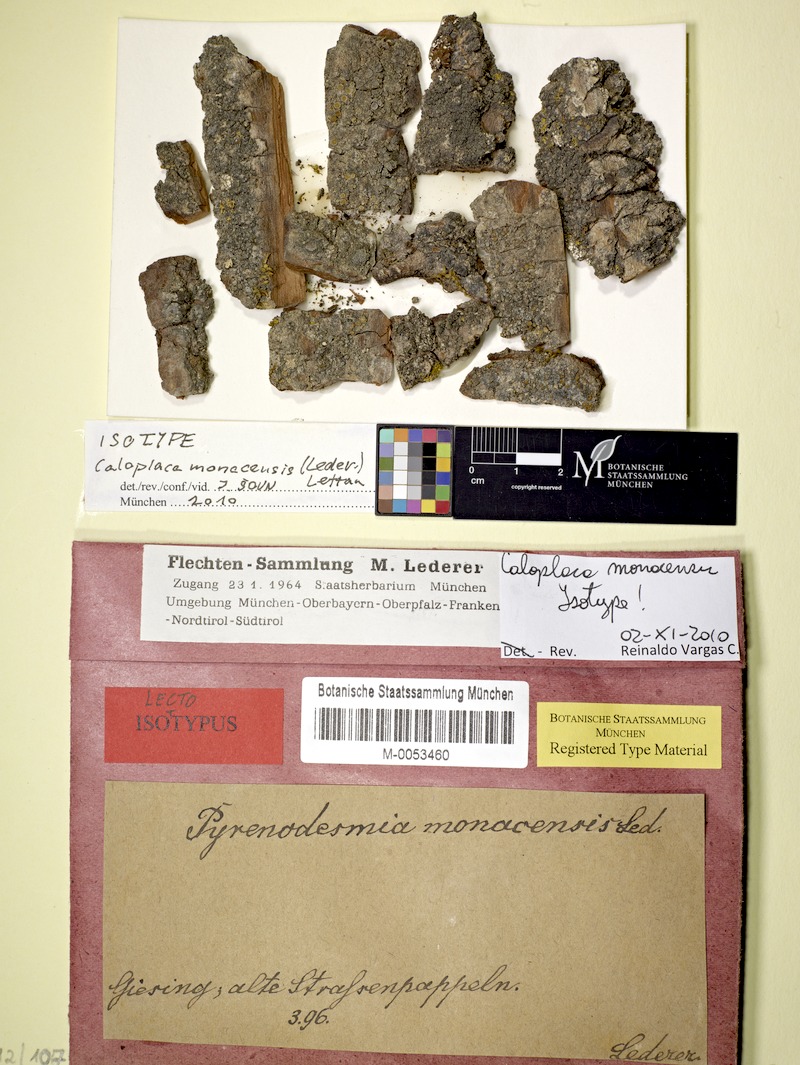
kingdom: Fungi
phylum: Ascomycota
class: Lecanoromycetes
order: Teloschistales
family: Teloschistaceae
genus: Caloplaca
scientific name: Caloplaca monacensis
